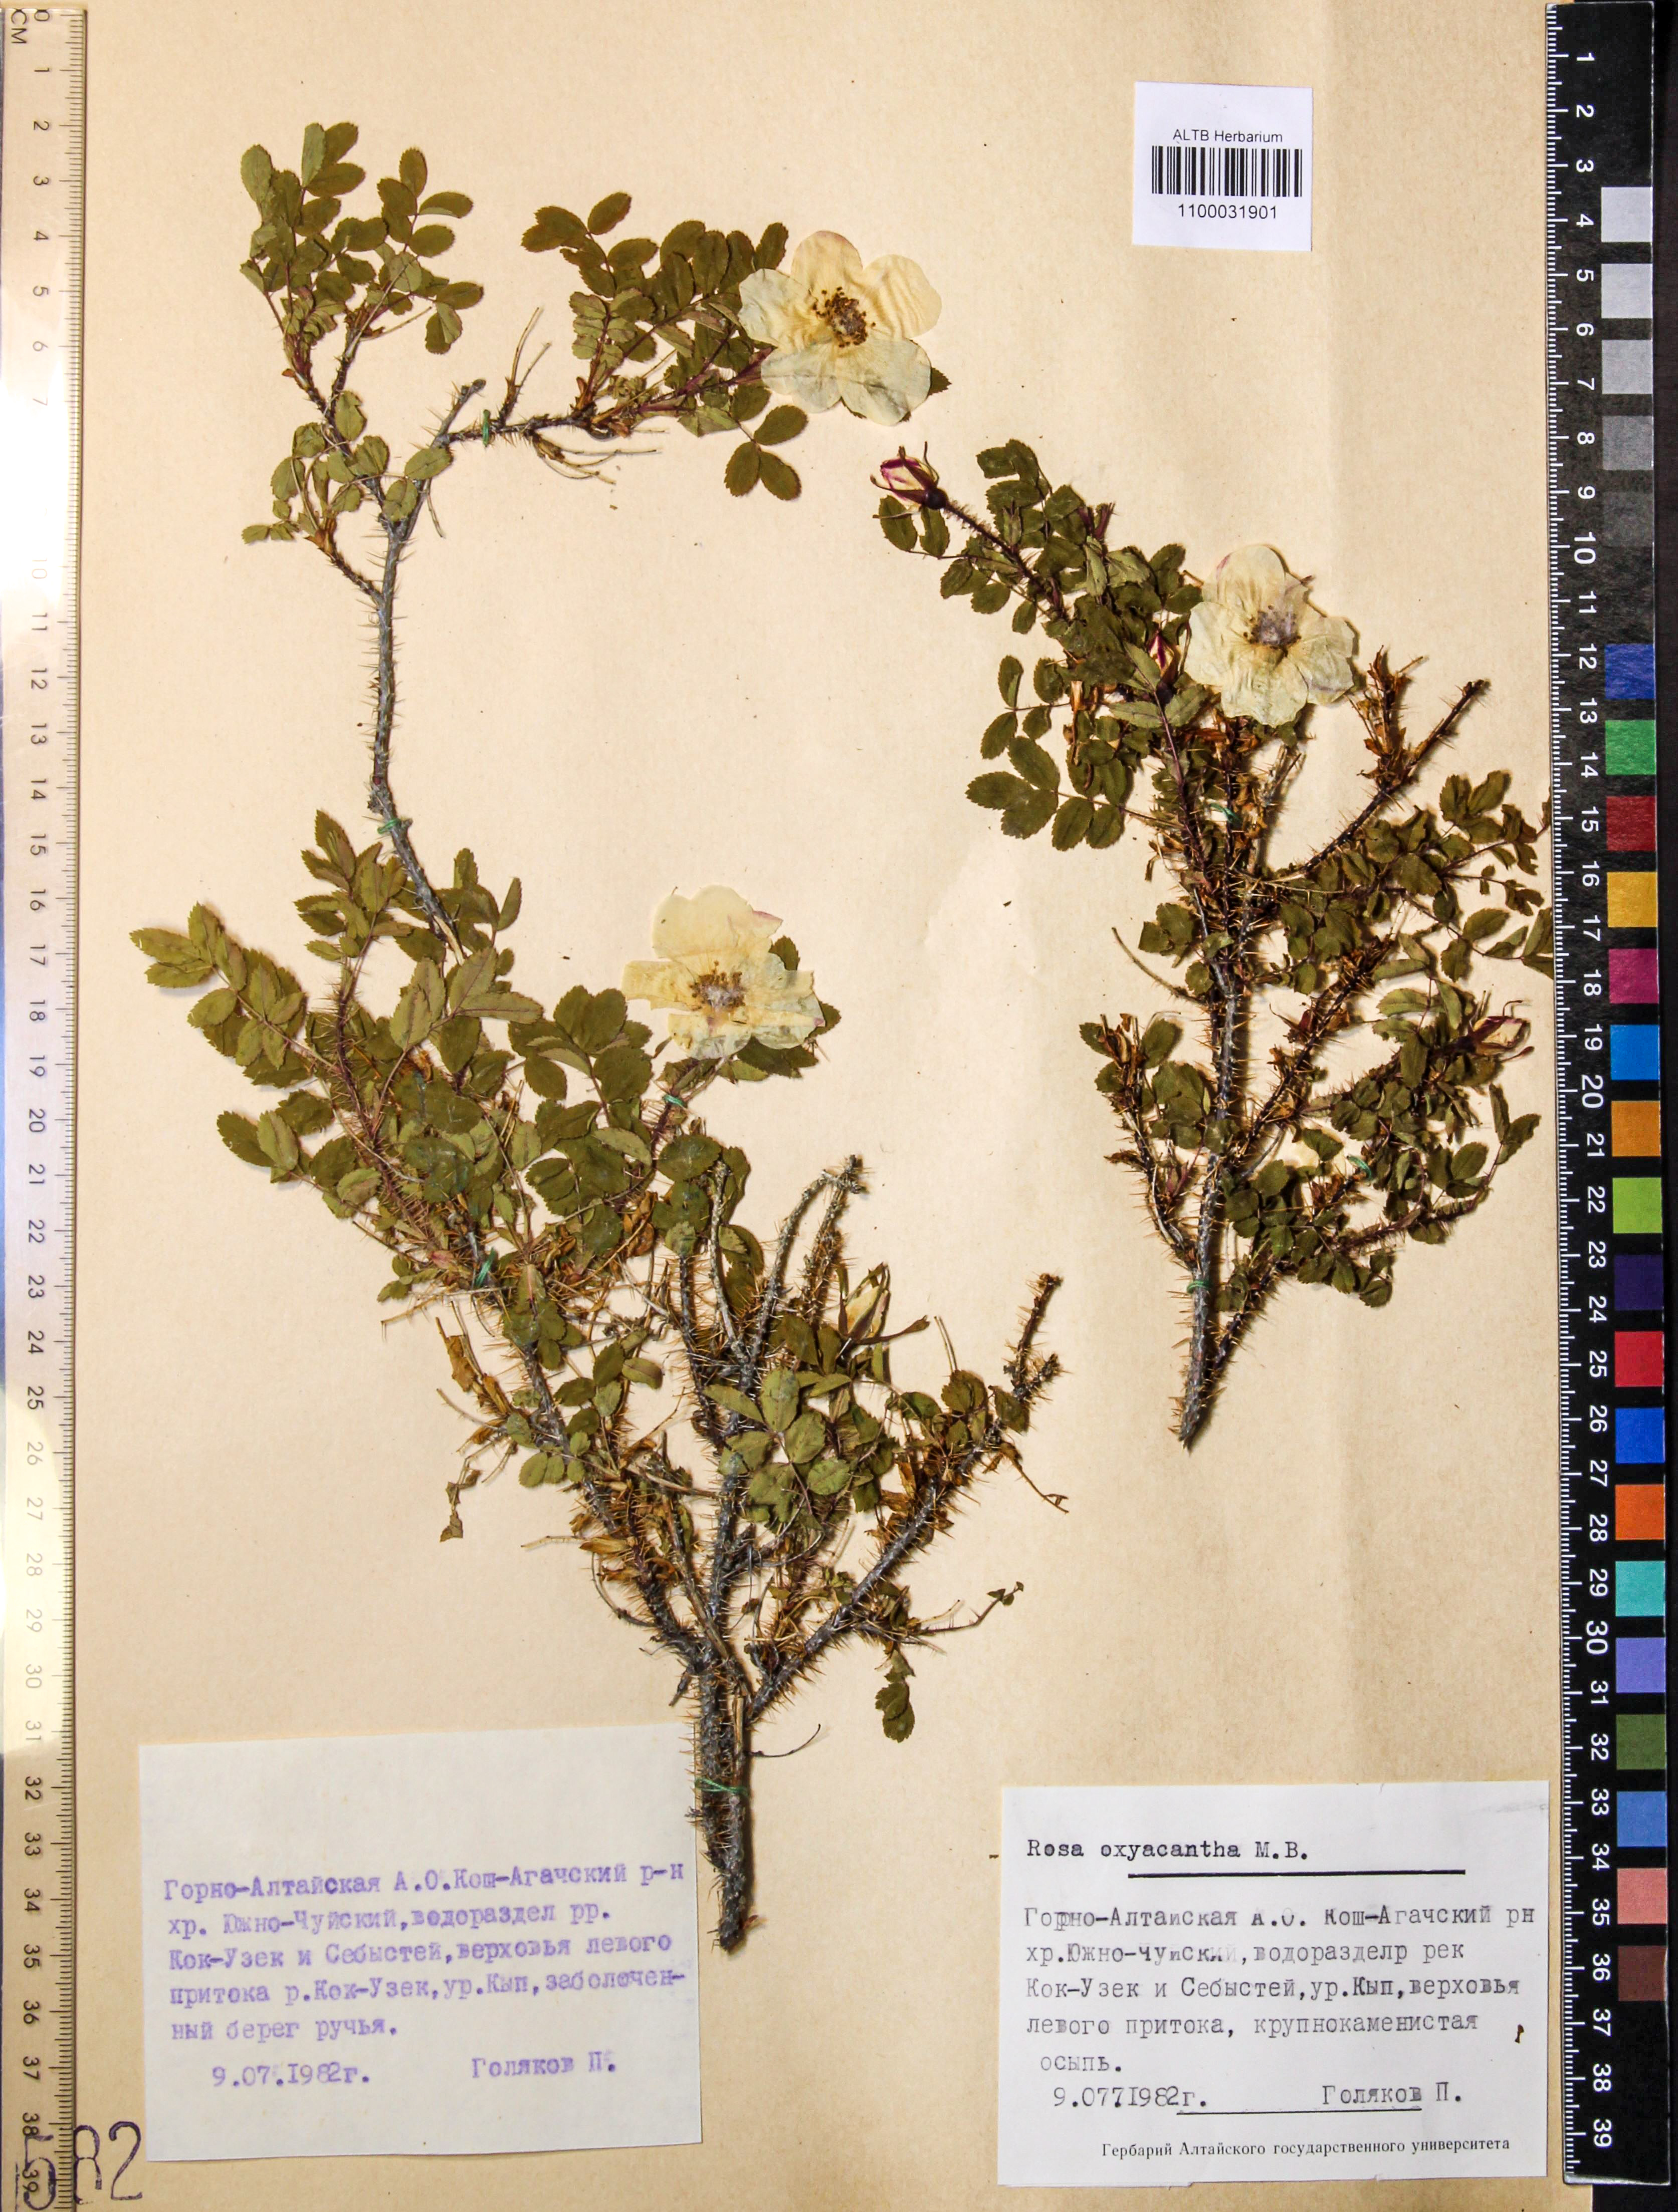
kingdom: Plantae
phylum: Tracheophyta
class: Magnoliopsida
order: Rosales
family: Rosaceae
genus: Rosa
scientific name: Rosa oxyacantha
